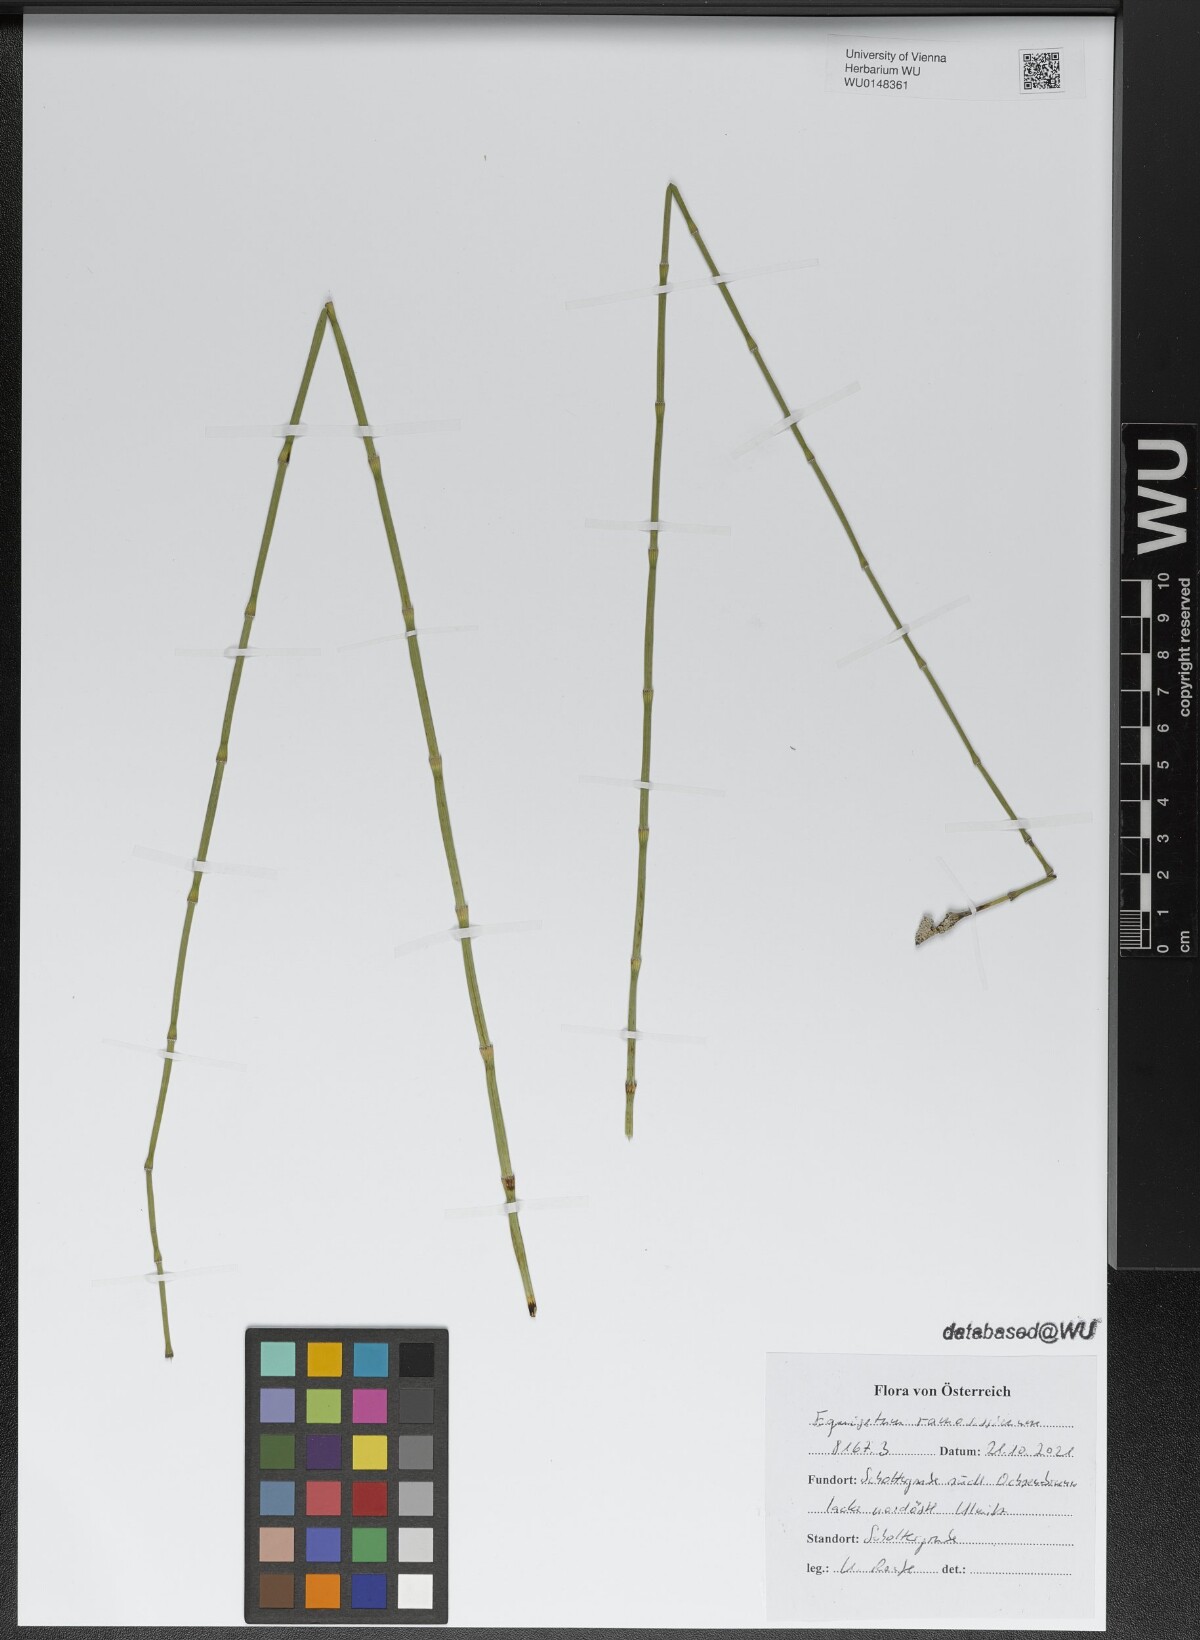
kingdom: Plantae
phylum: Tracheophyta
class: Polypodiopsida
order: Equisetales
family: Equisetaceae
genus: Equisetum
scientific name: Equisetum ramosissimum
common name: Branched horsetail
